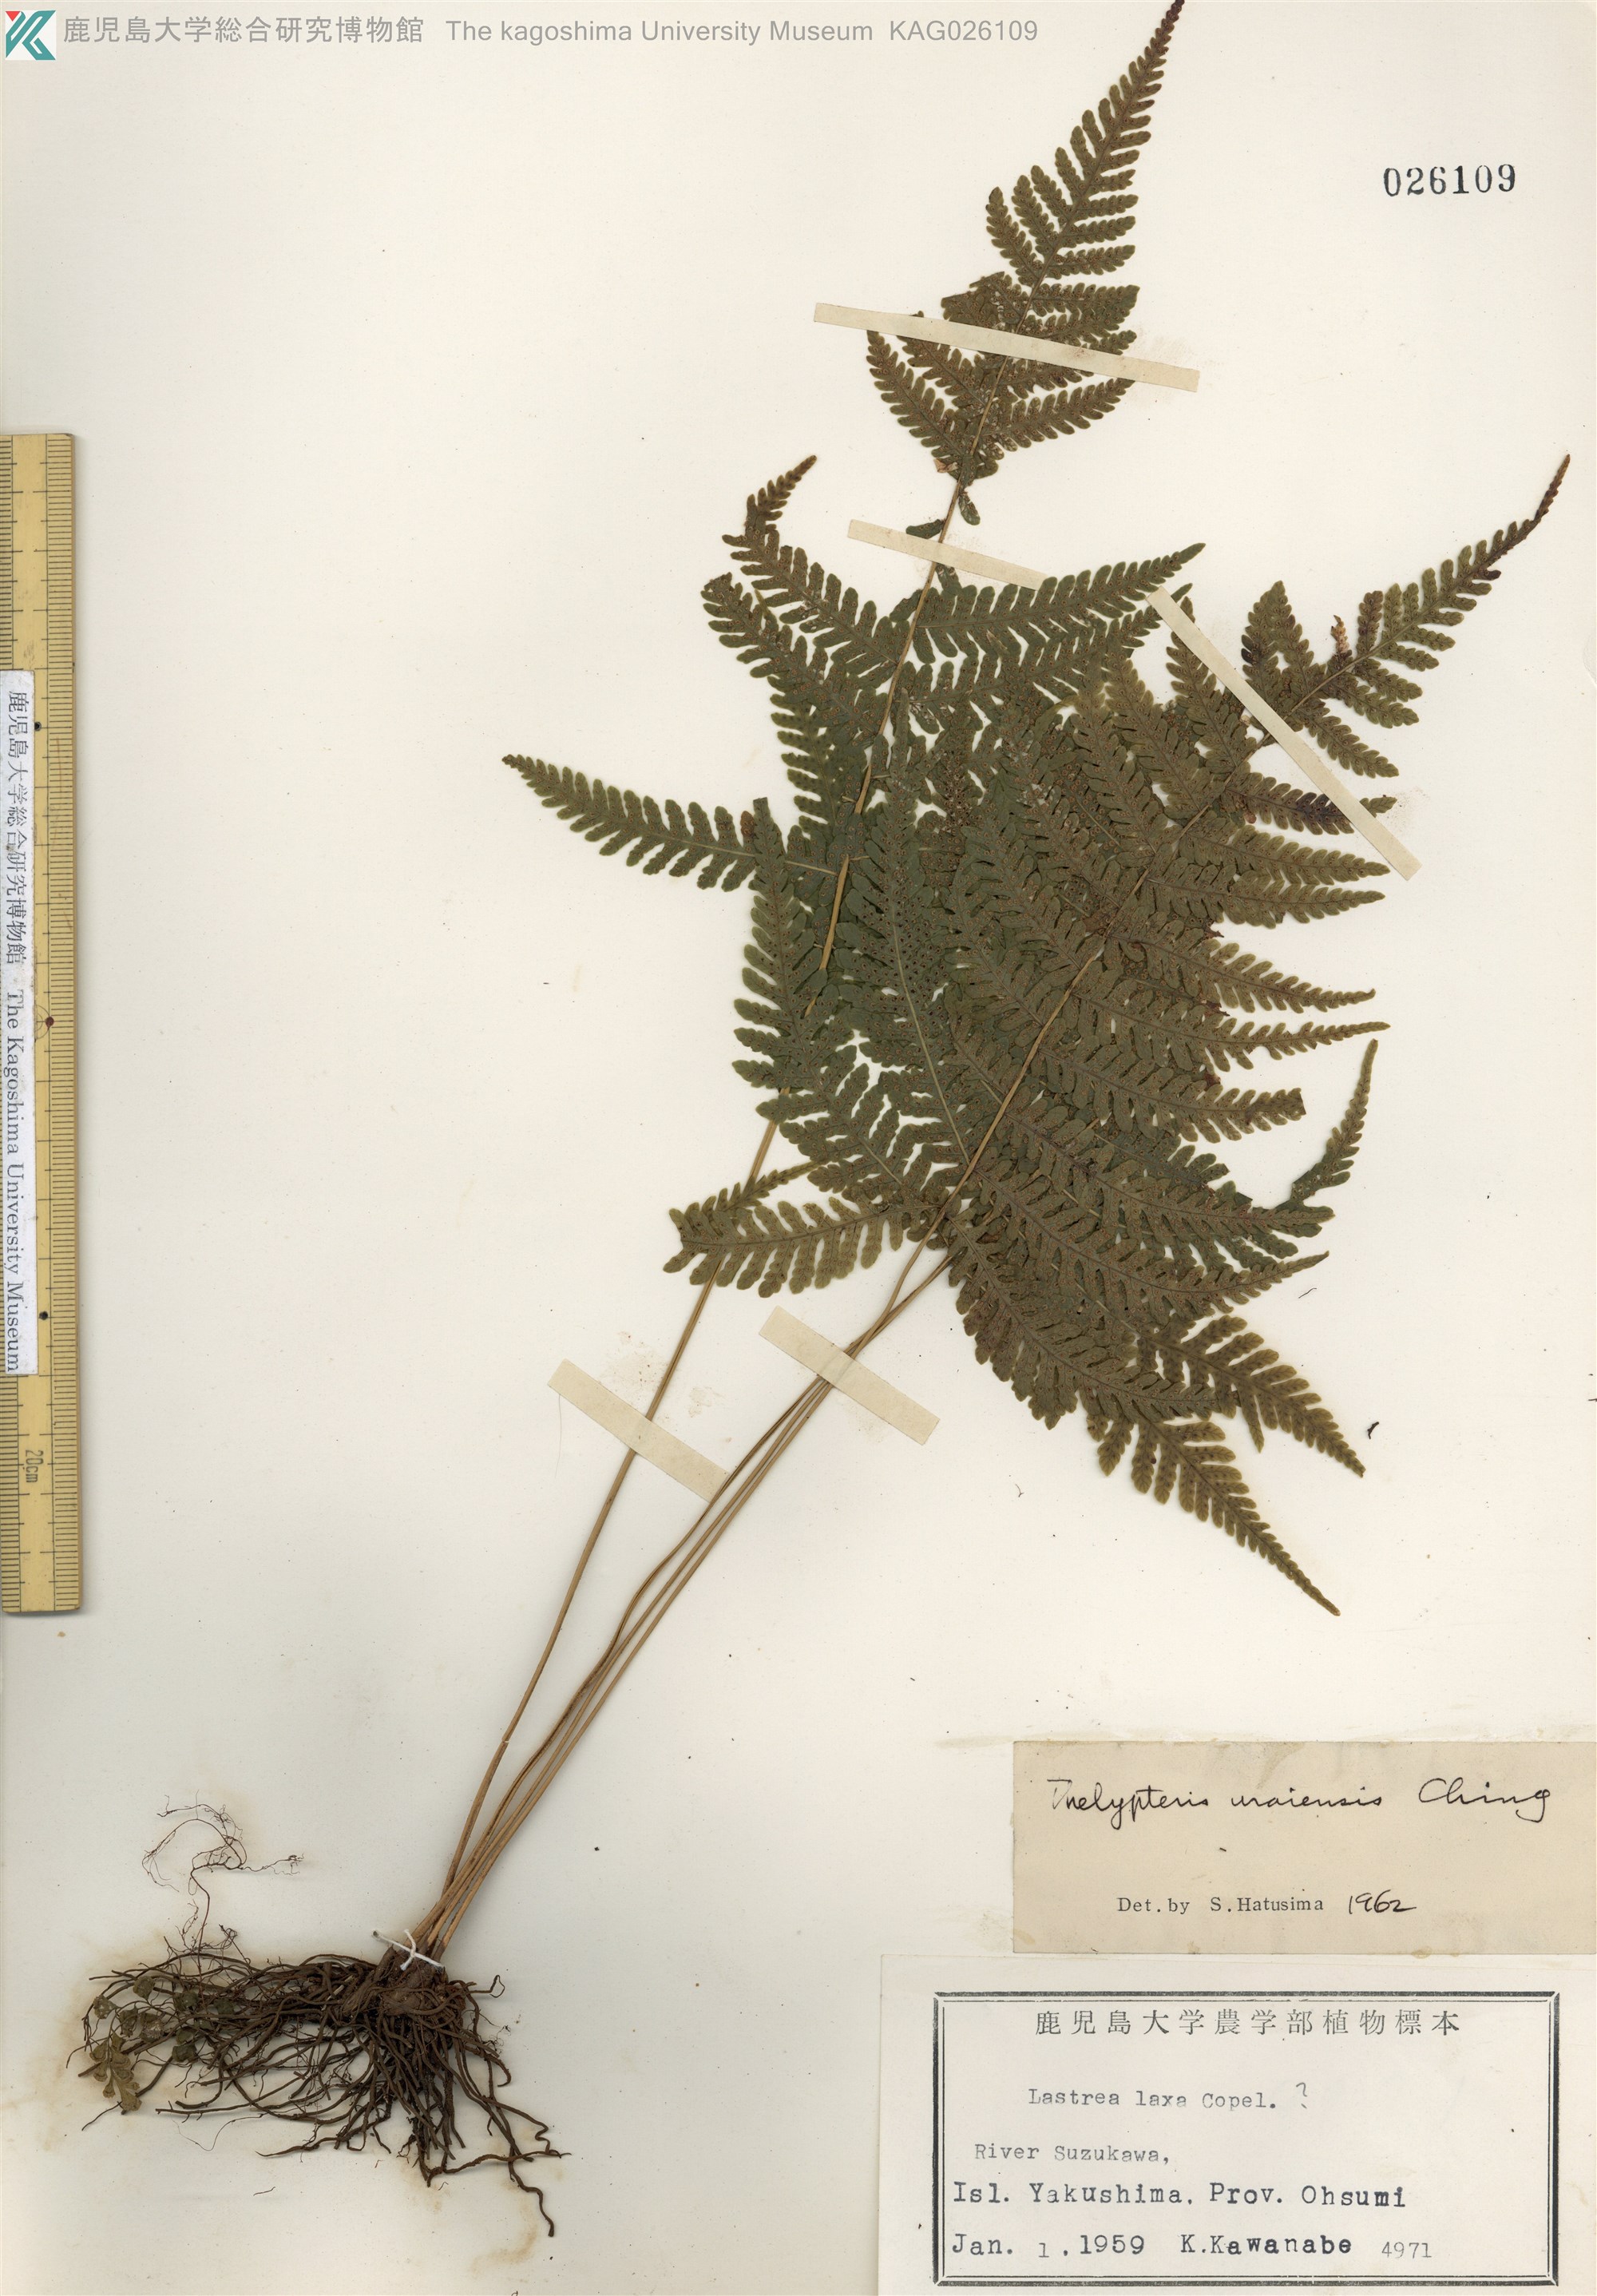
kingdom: Plantae
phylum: Tracheophyta
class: Polypodiopsida
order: Polypodiales
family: Thelypteridaceae
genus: Metathelypteris
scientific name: Metathelypteris uraiensis
